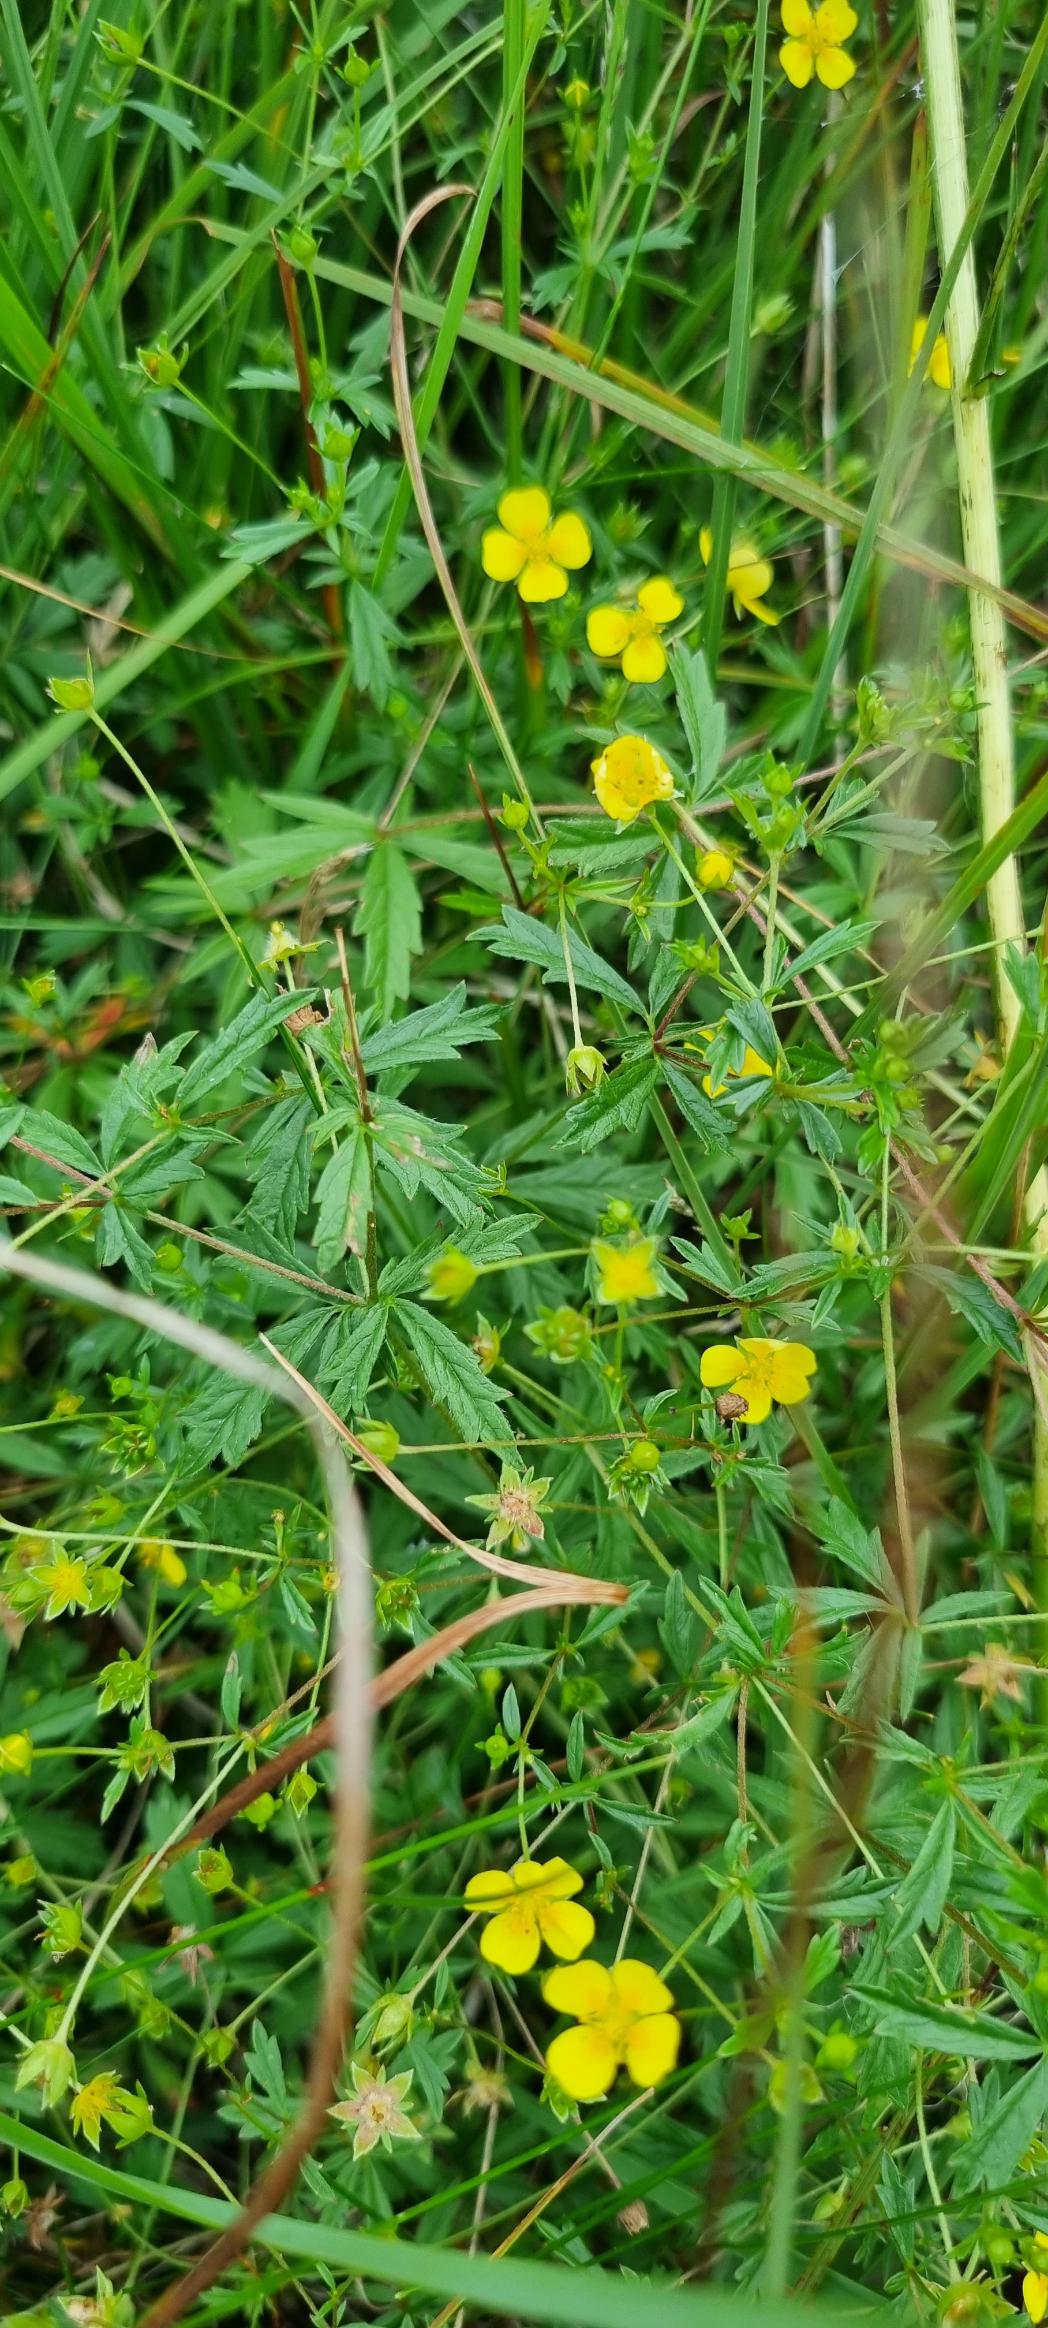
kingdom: Plantae
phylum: Tracheophyta
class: Magnoliopsida
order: Rosales
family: Rosaceae
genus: Potentilla
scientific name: Potentilla erecta
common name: Tormentil
